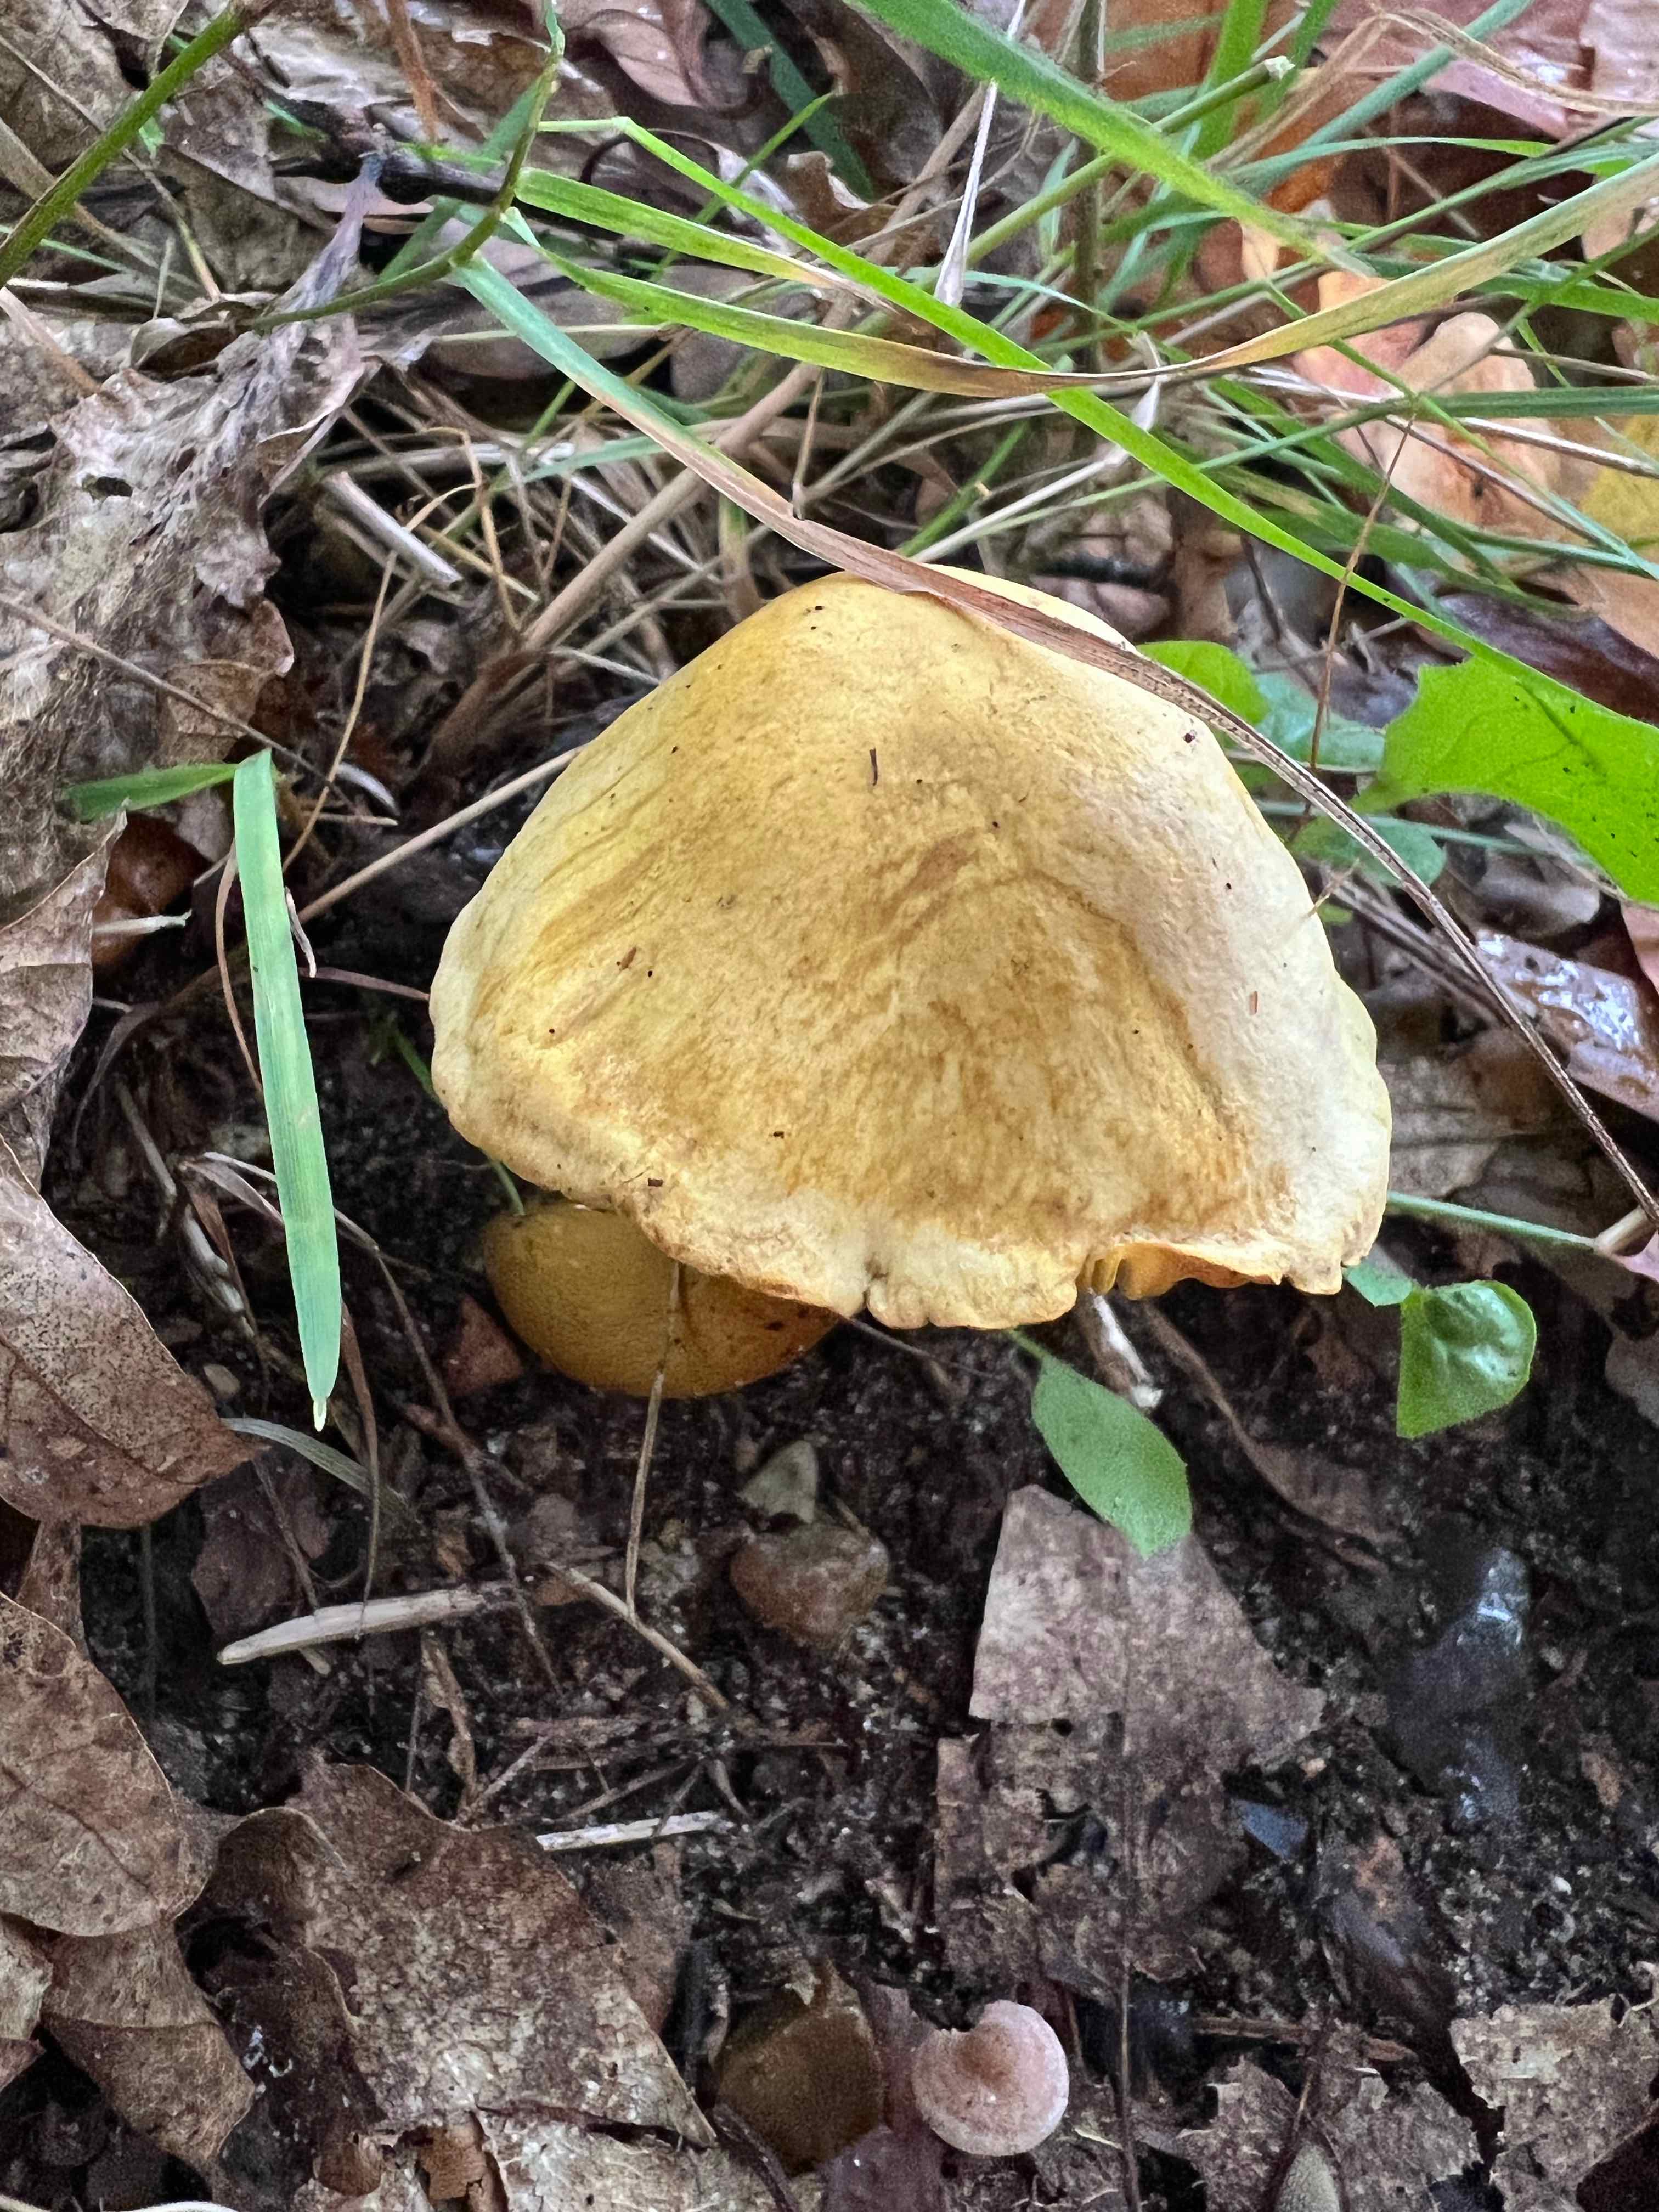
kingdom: Fungi
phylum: Basidiomycota
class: Agaricomycetes
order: Agaricales
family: Tricholomataceae
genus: Tricholoma
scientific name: Tricholoma sulphureum
